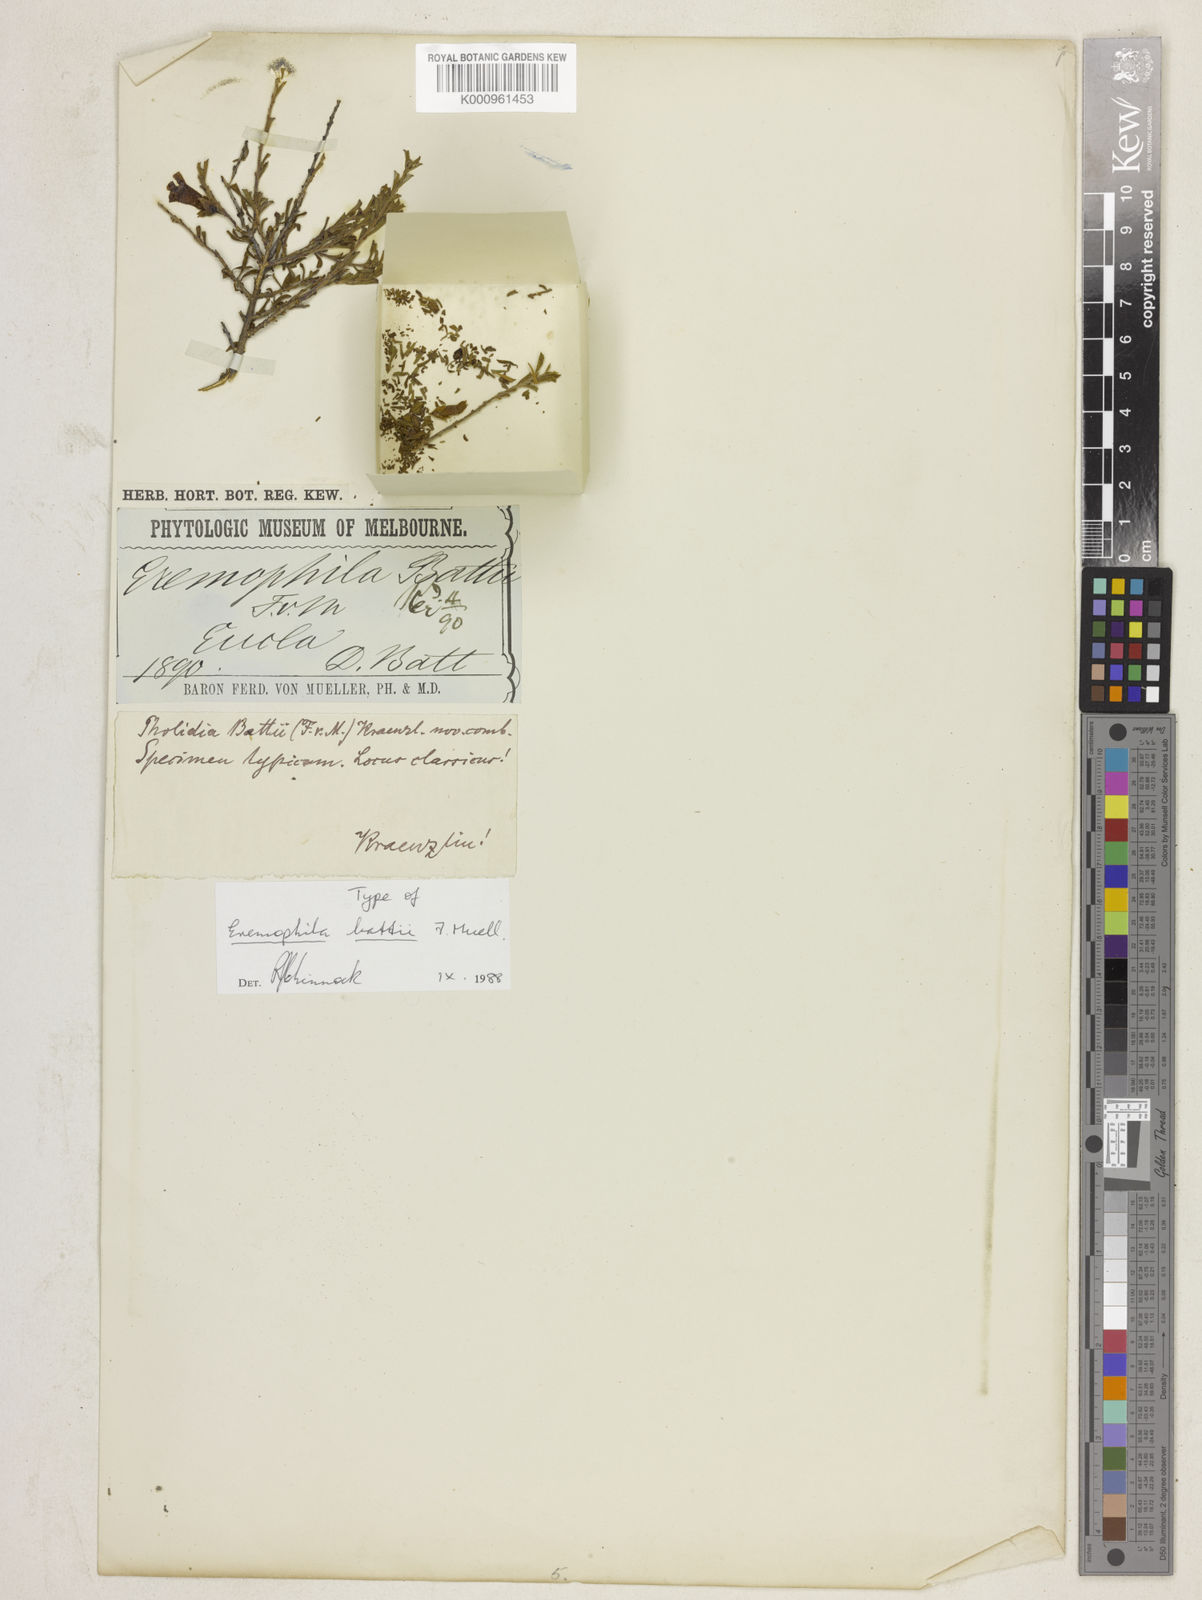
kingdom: Plantae
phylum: Tracheophyta
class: Magnoliopsida
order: Lamiales
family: Scrophulariaceae
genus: Eremophila
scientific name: Eremophila battii
